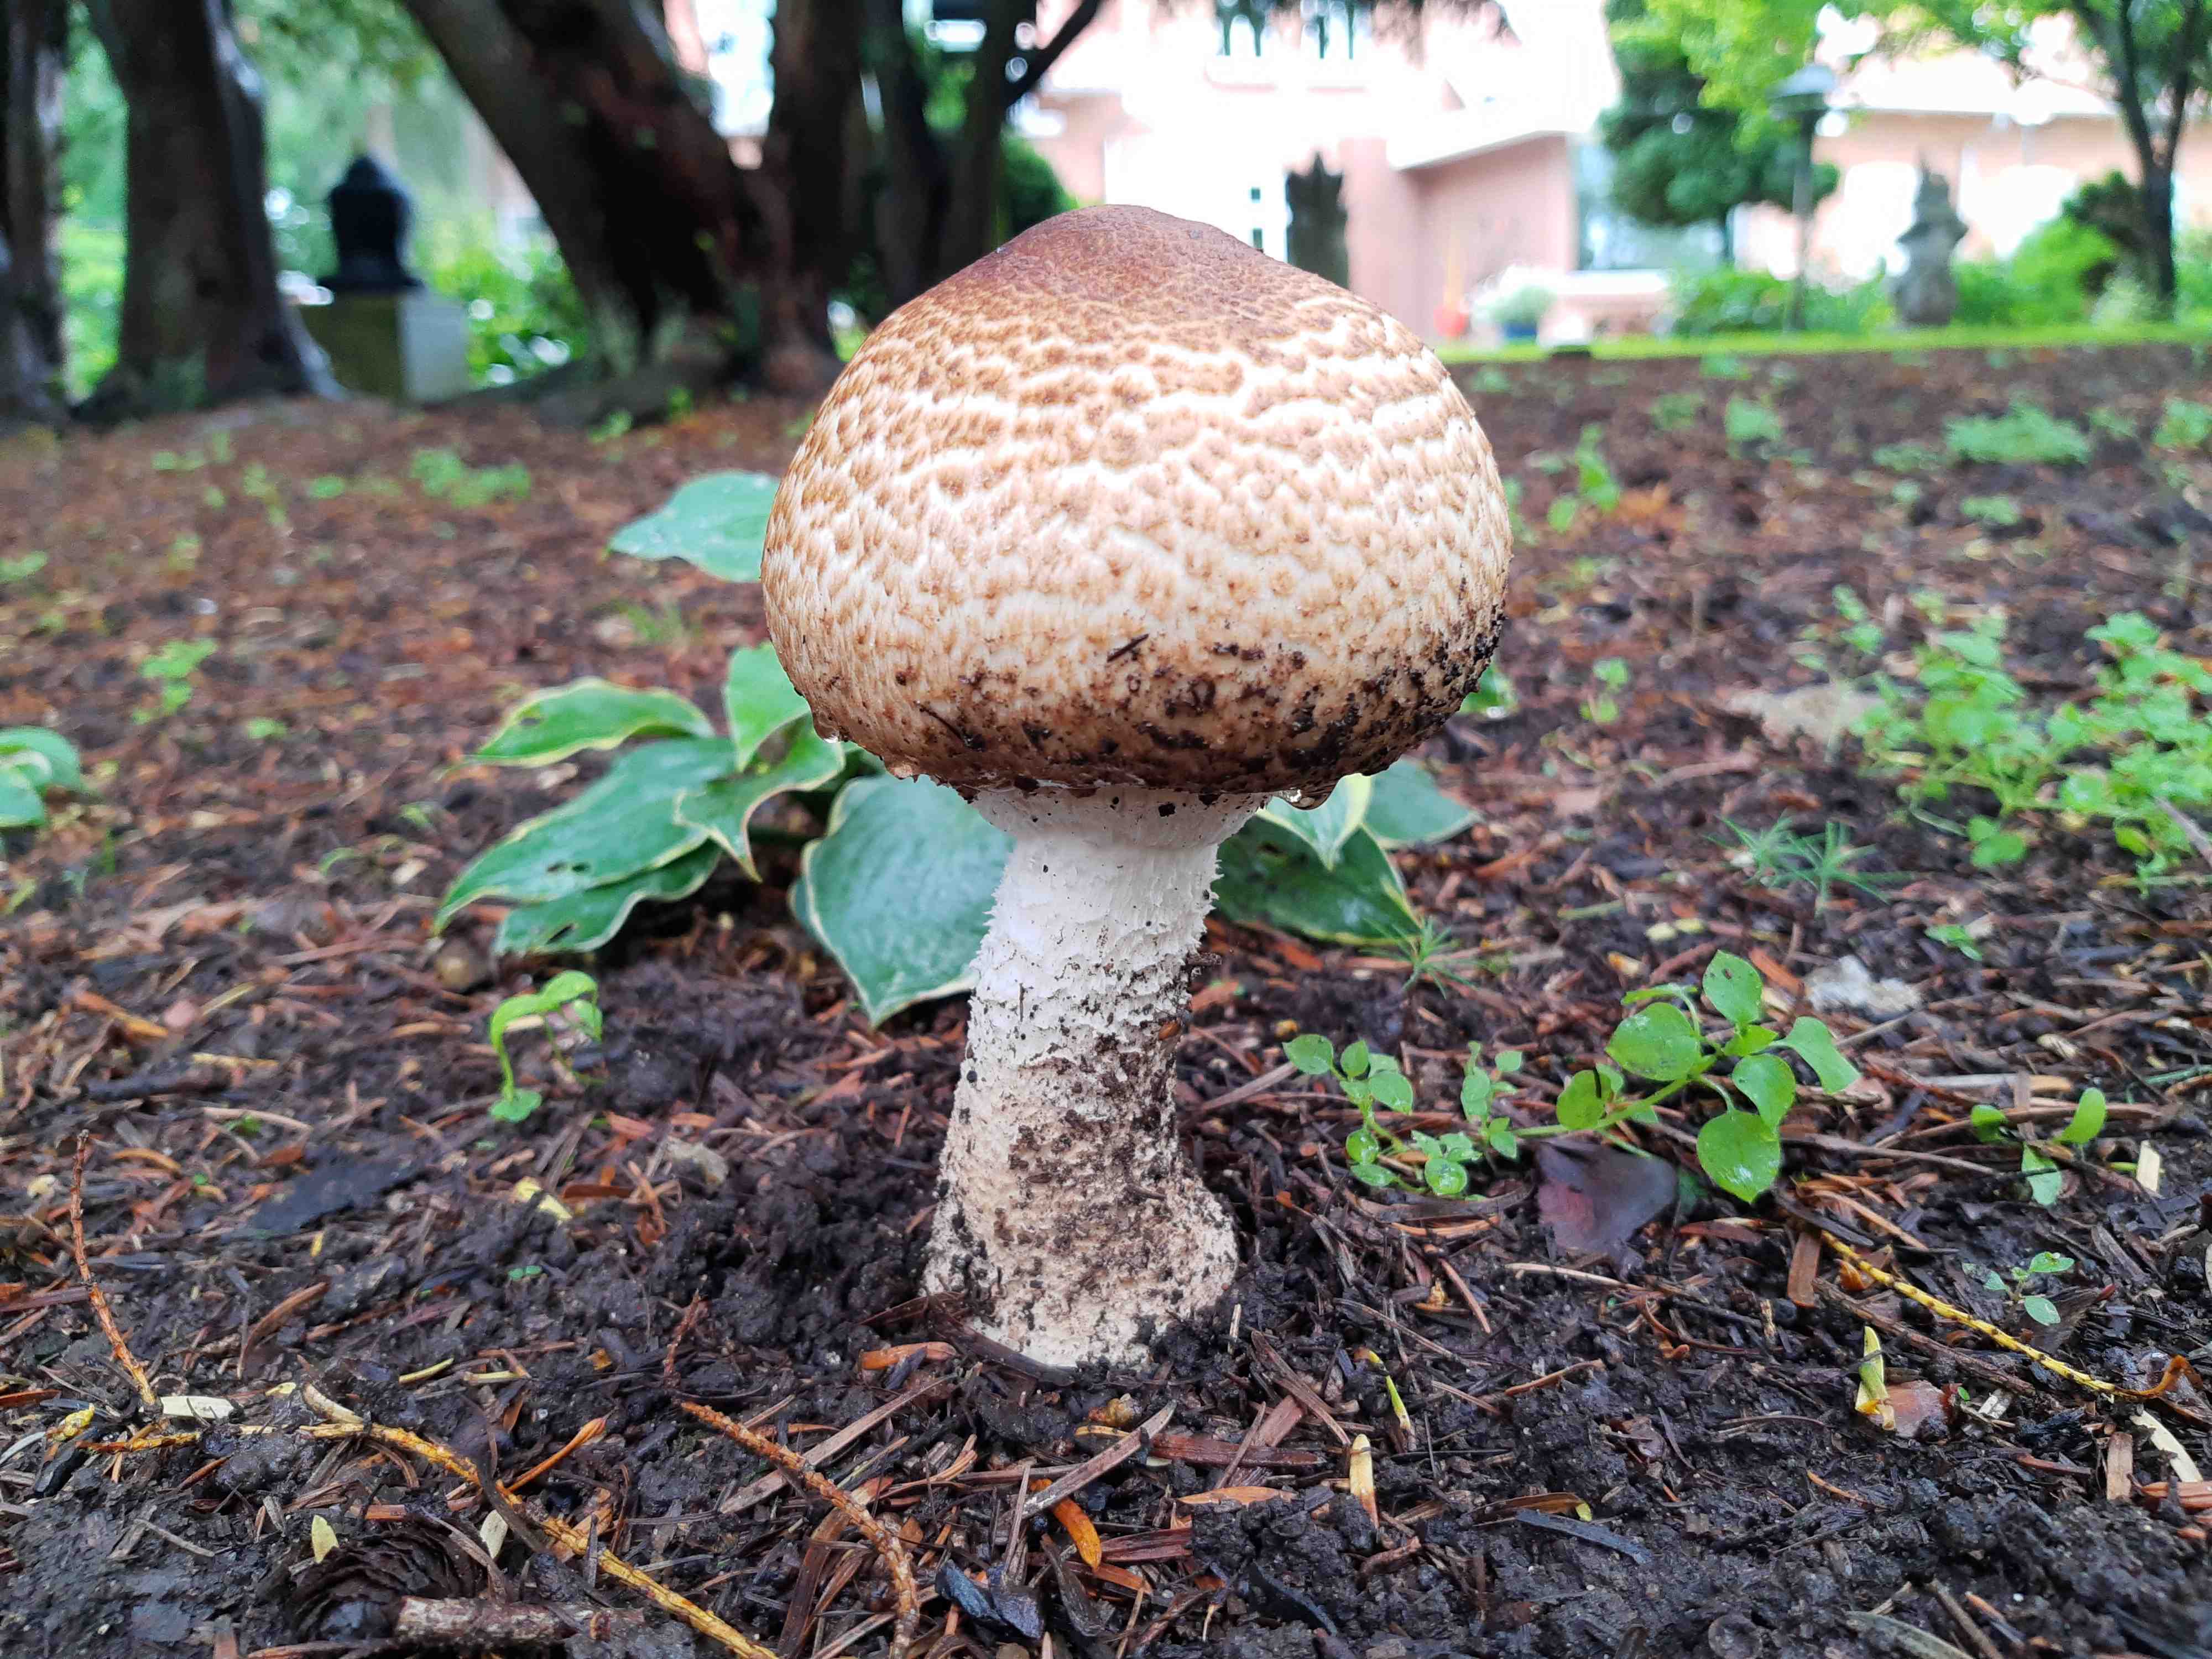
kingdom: Fungi
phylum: Basidiomycota
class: Agaricomycetes
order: Agaricales
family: Agaricaceae
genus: Agaricus
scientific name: Agaricus augustus
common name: prægtig champignon
